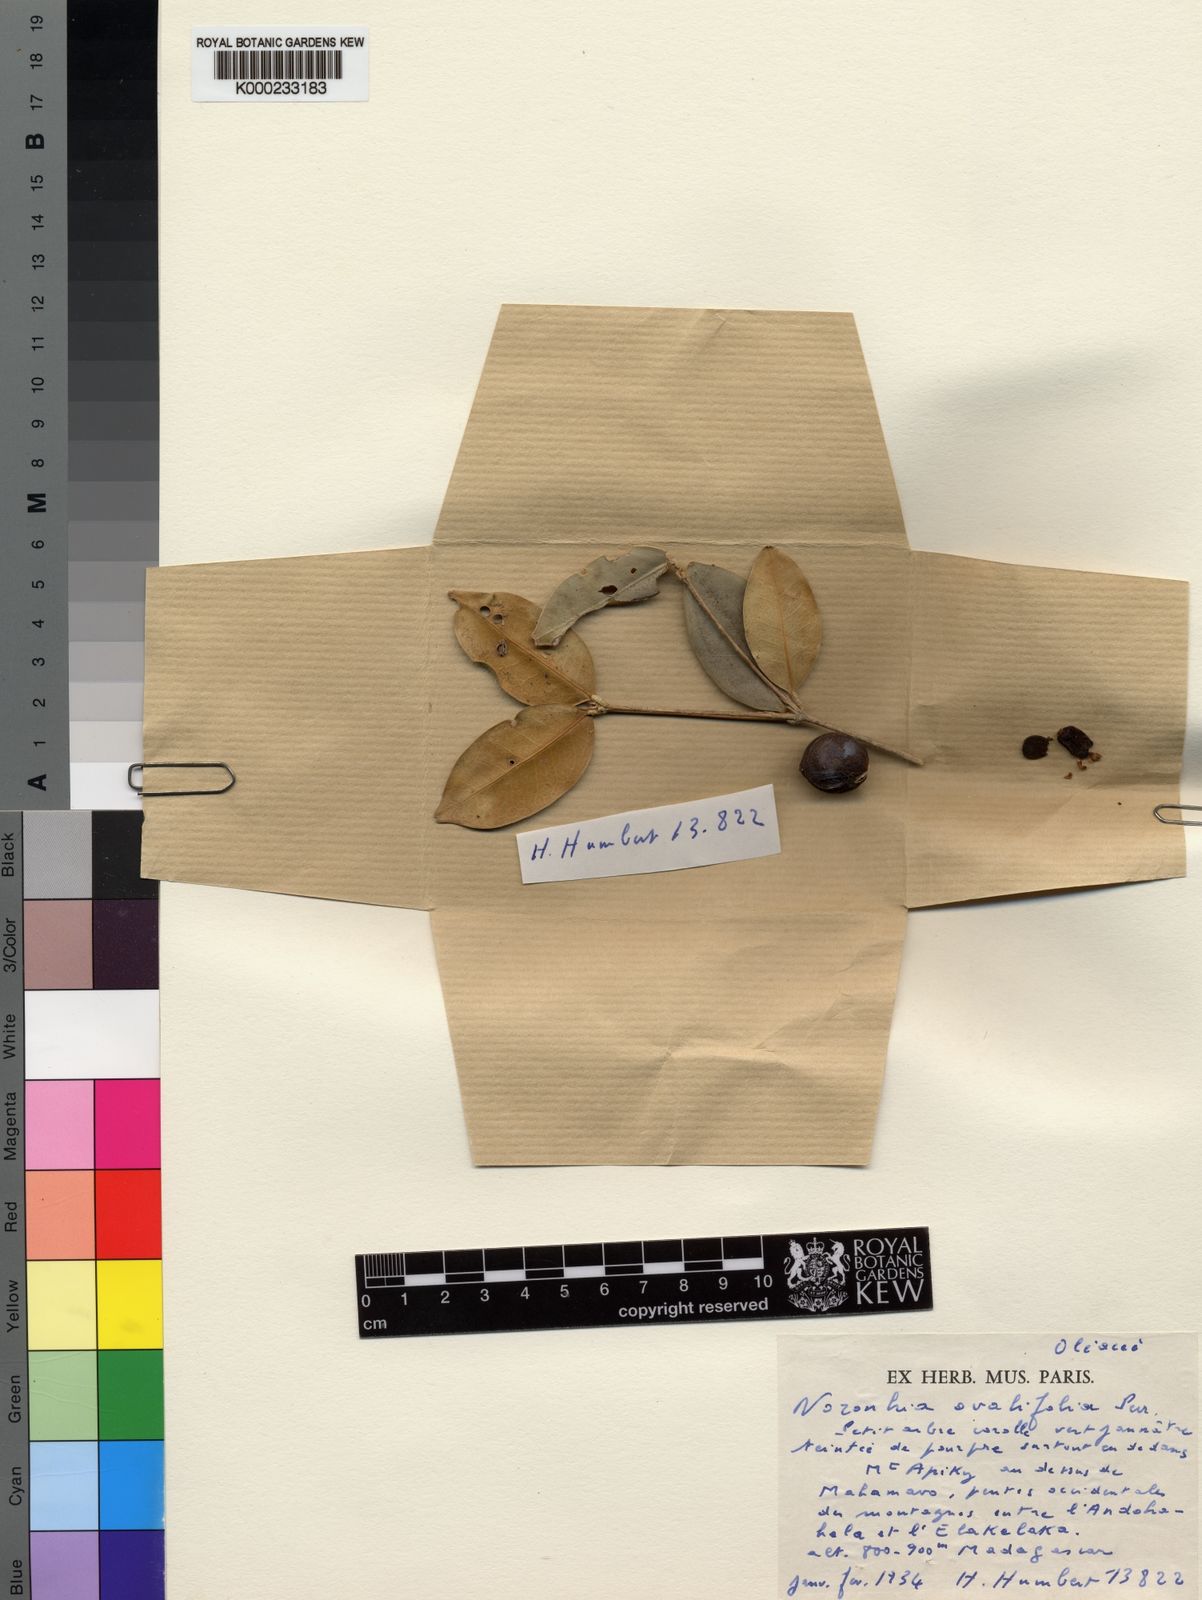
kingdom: Plantae
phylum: Tracheophyta
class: Magnoliopsida
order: Lamiales
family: Oleaceae
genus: Noronhia
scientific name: Noronhia ovalifolia
